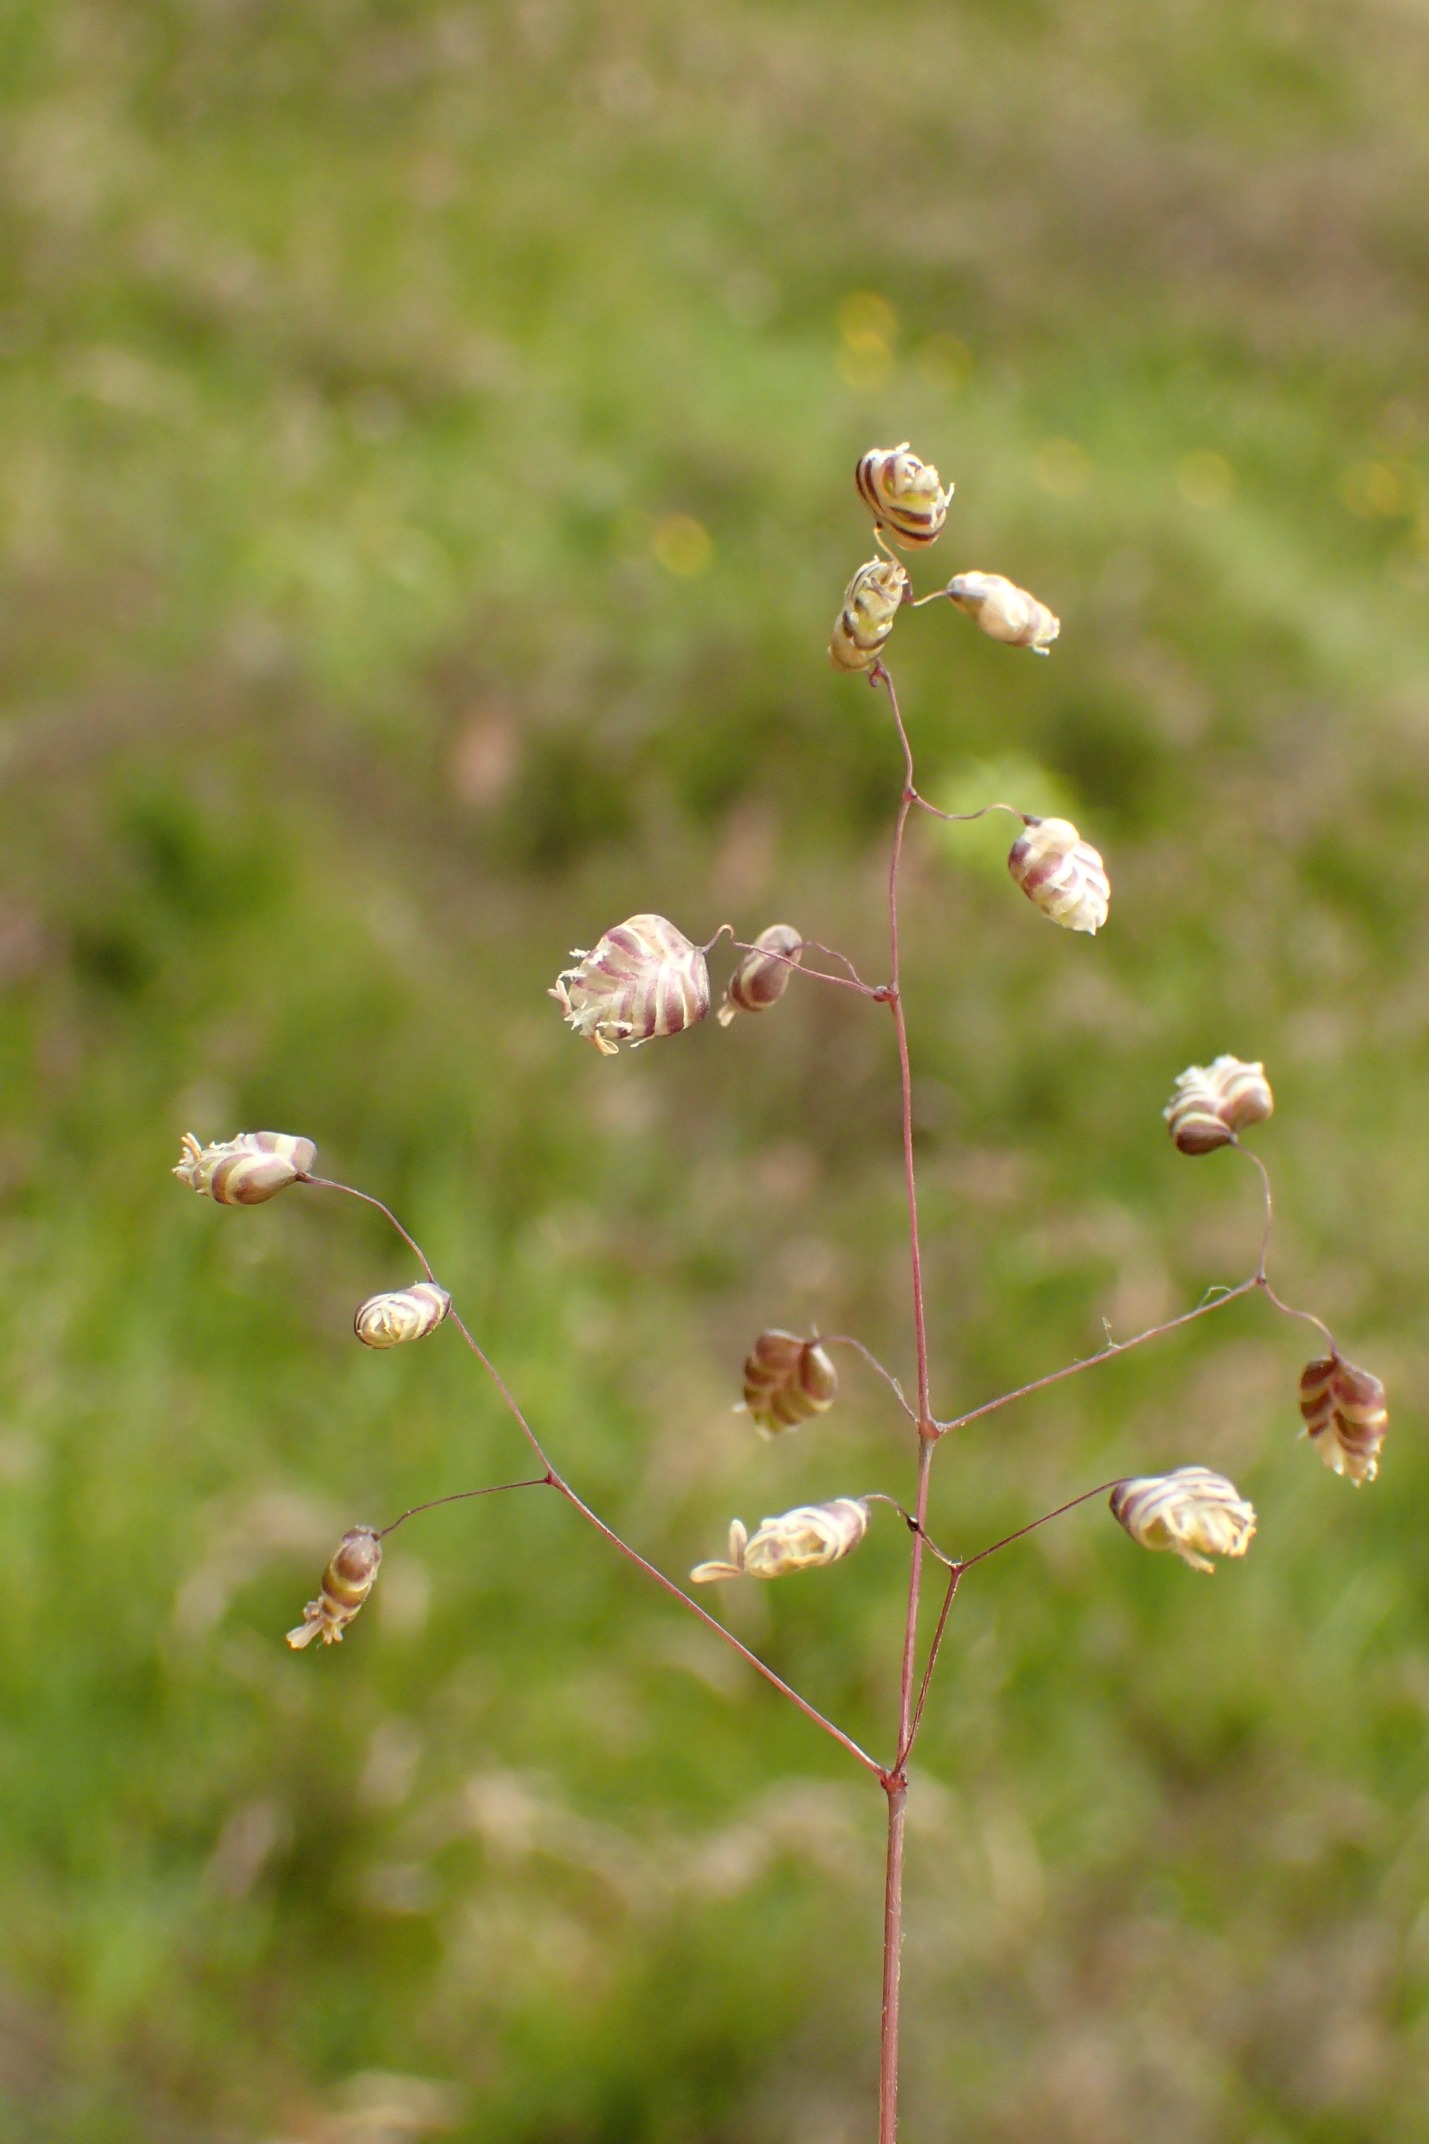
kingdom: Plantae
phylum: Tracheophyta
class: Liliopsida
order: Poales
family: Poaceae
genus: Briza
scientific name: Briza media
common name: Hjertegræs
